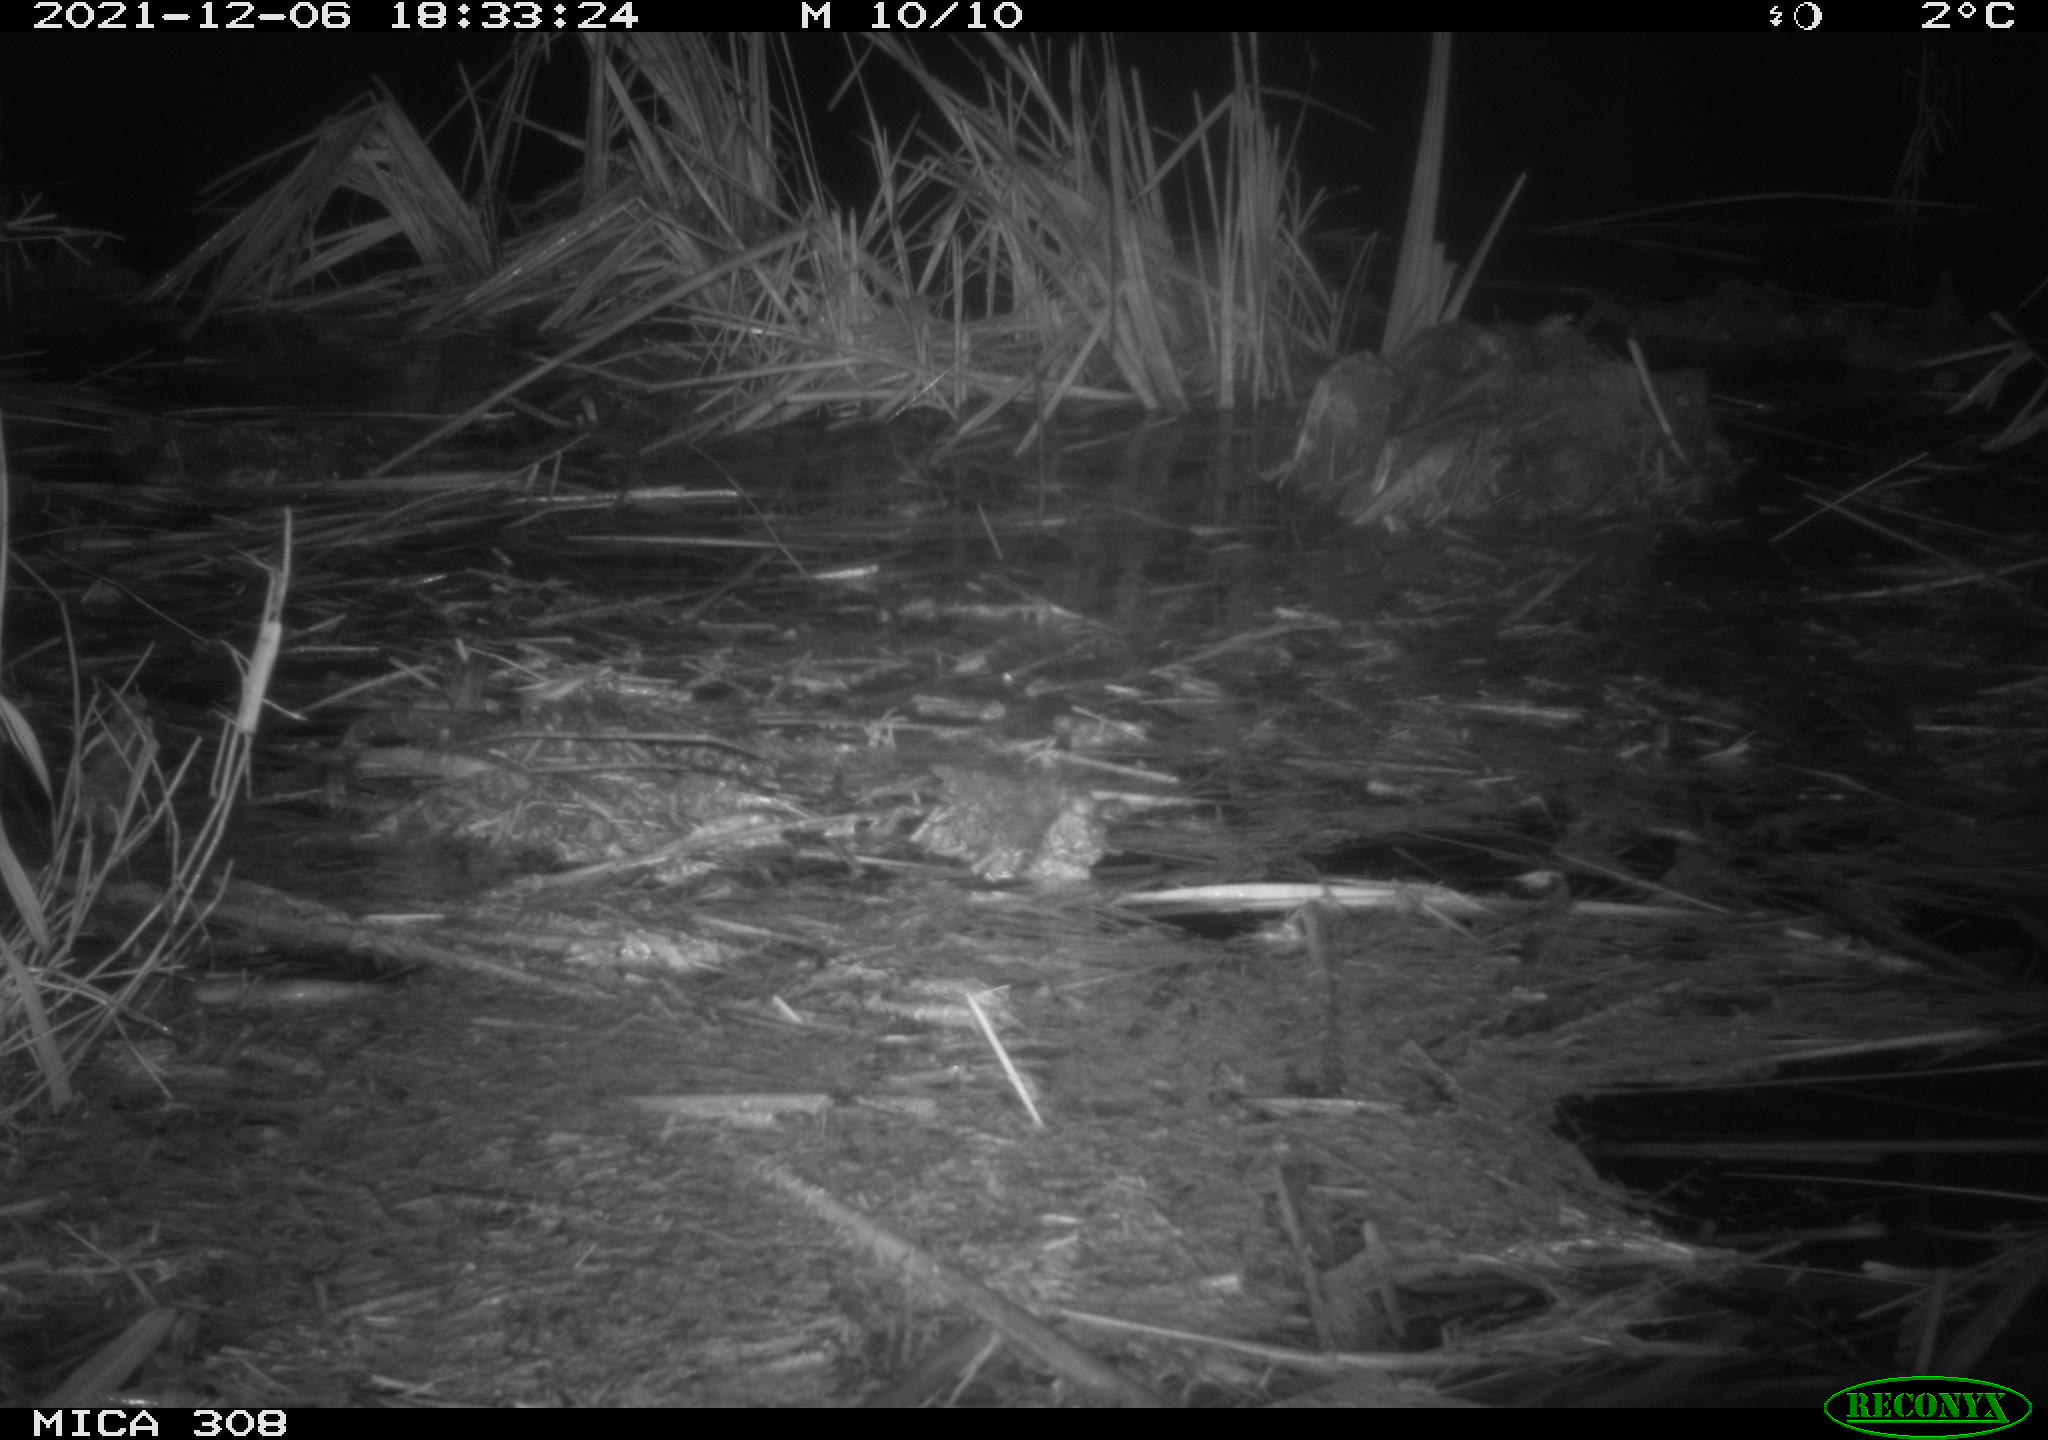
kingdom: Animalia
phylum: Chordata
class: Mammalia
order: Rodentia
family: Muridae
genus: Rattus
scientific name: Rattus norvegicus
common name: Brown rat
